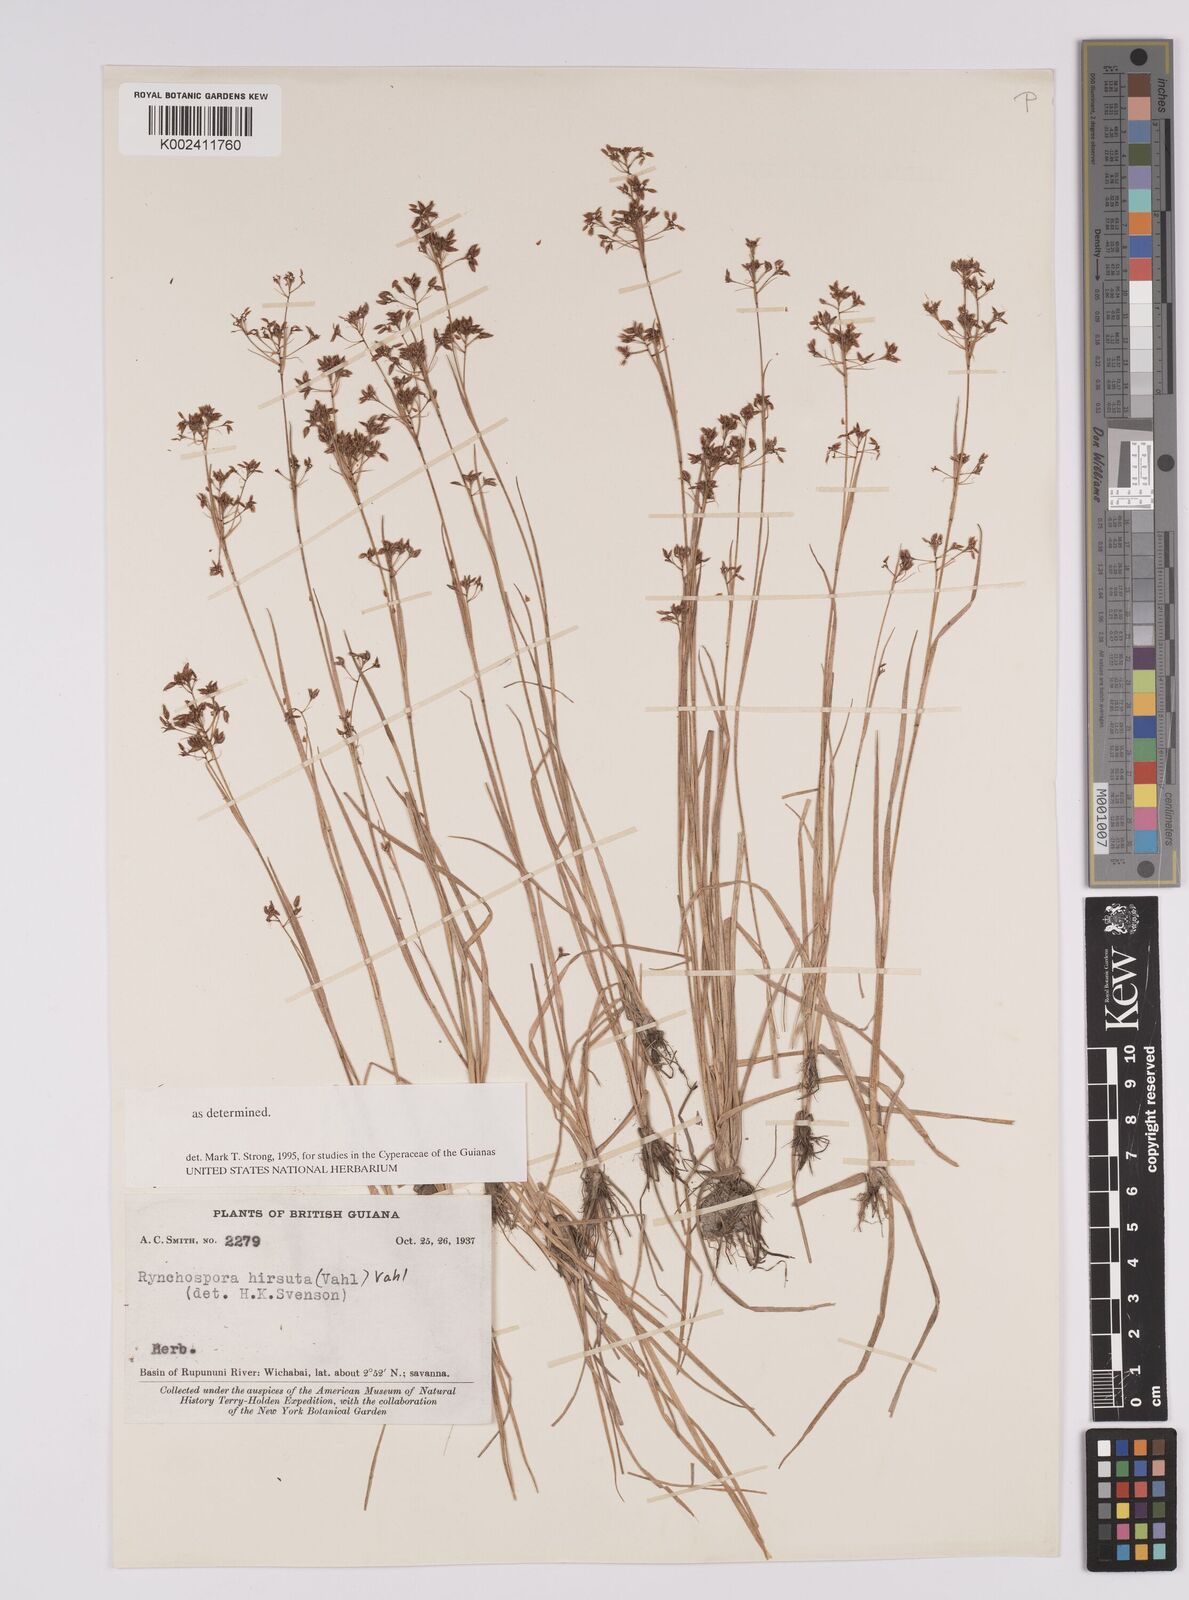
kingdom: Plantae
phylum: Tracheophyta
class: Liliopsida
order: Poales
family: Cyperaceae
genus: Rhynchospora
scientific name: Rhynchospora hirsuta
